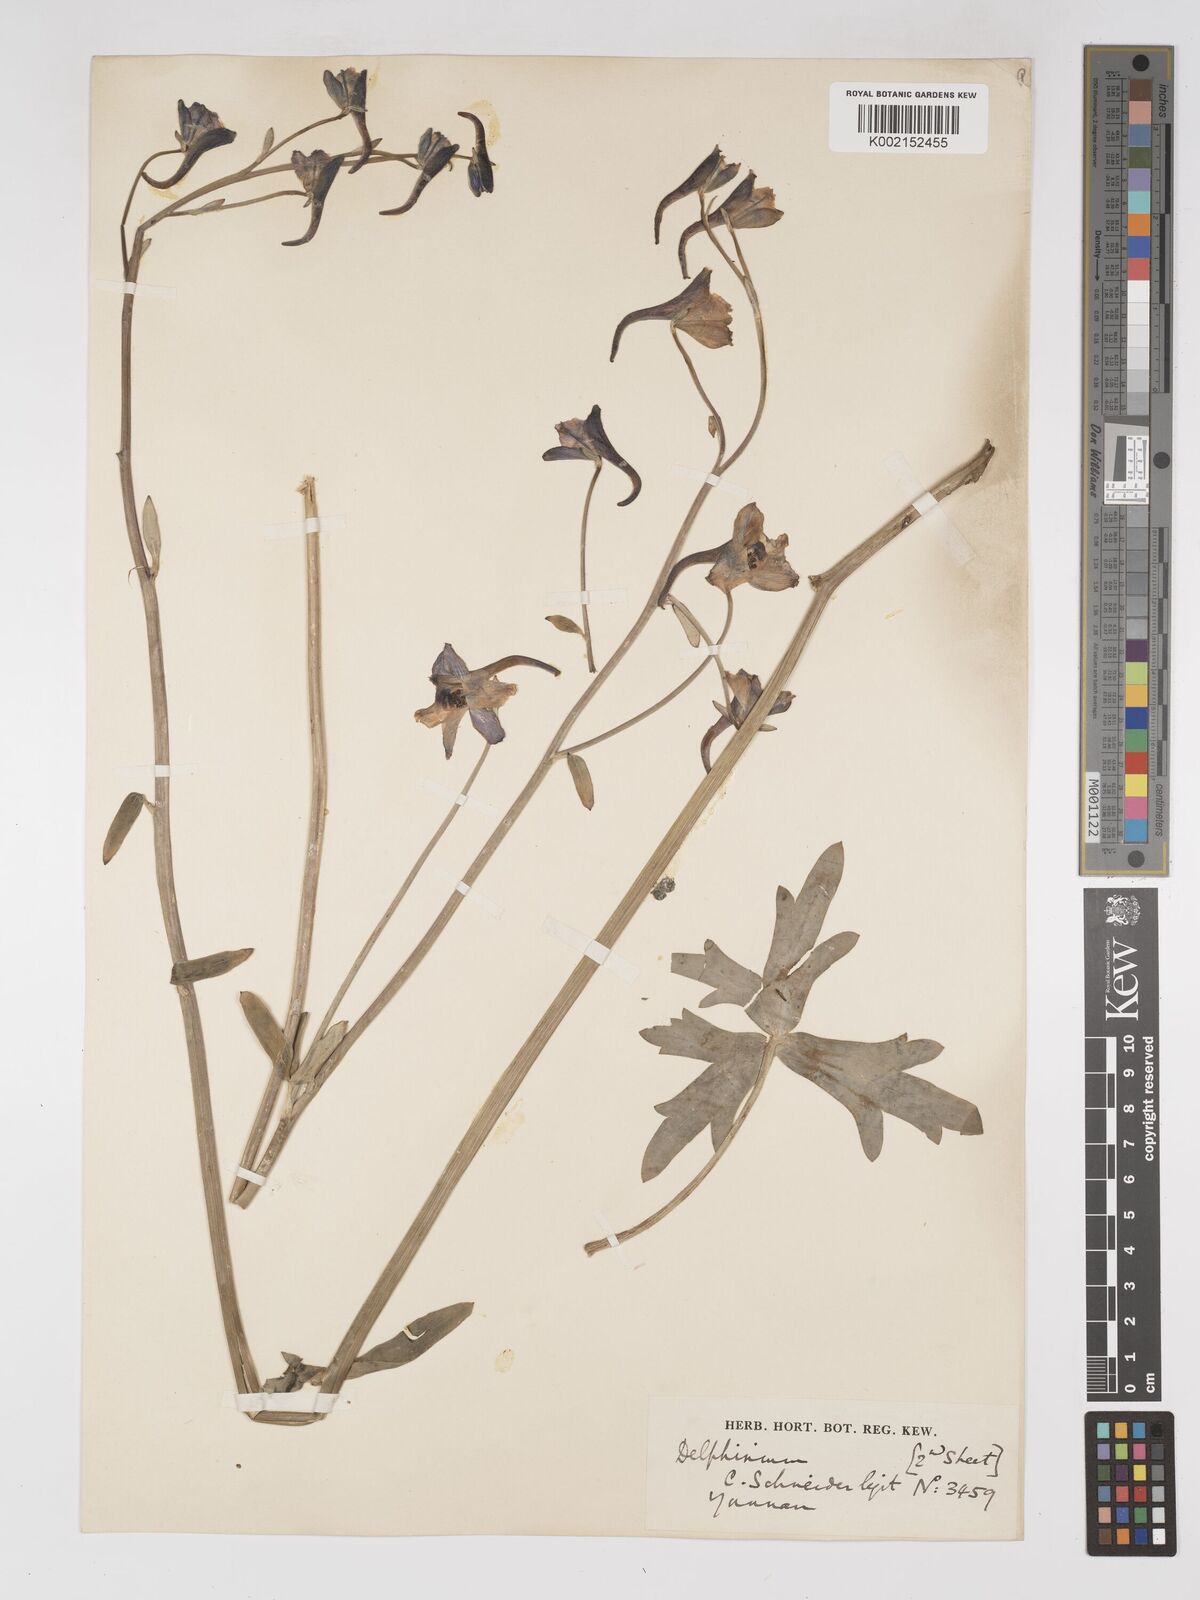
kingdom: Plantae
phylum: Tracheophyta
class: Magnoliopsida
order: Ranunculales
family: Ranunculaceae
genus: Delphinium
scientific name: Delphinium ceratophorum
